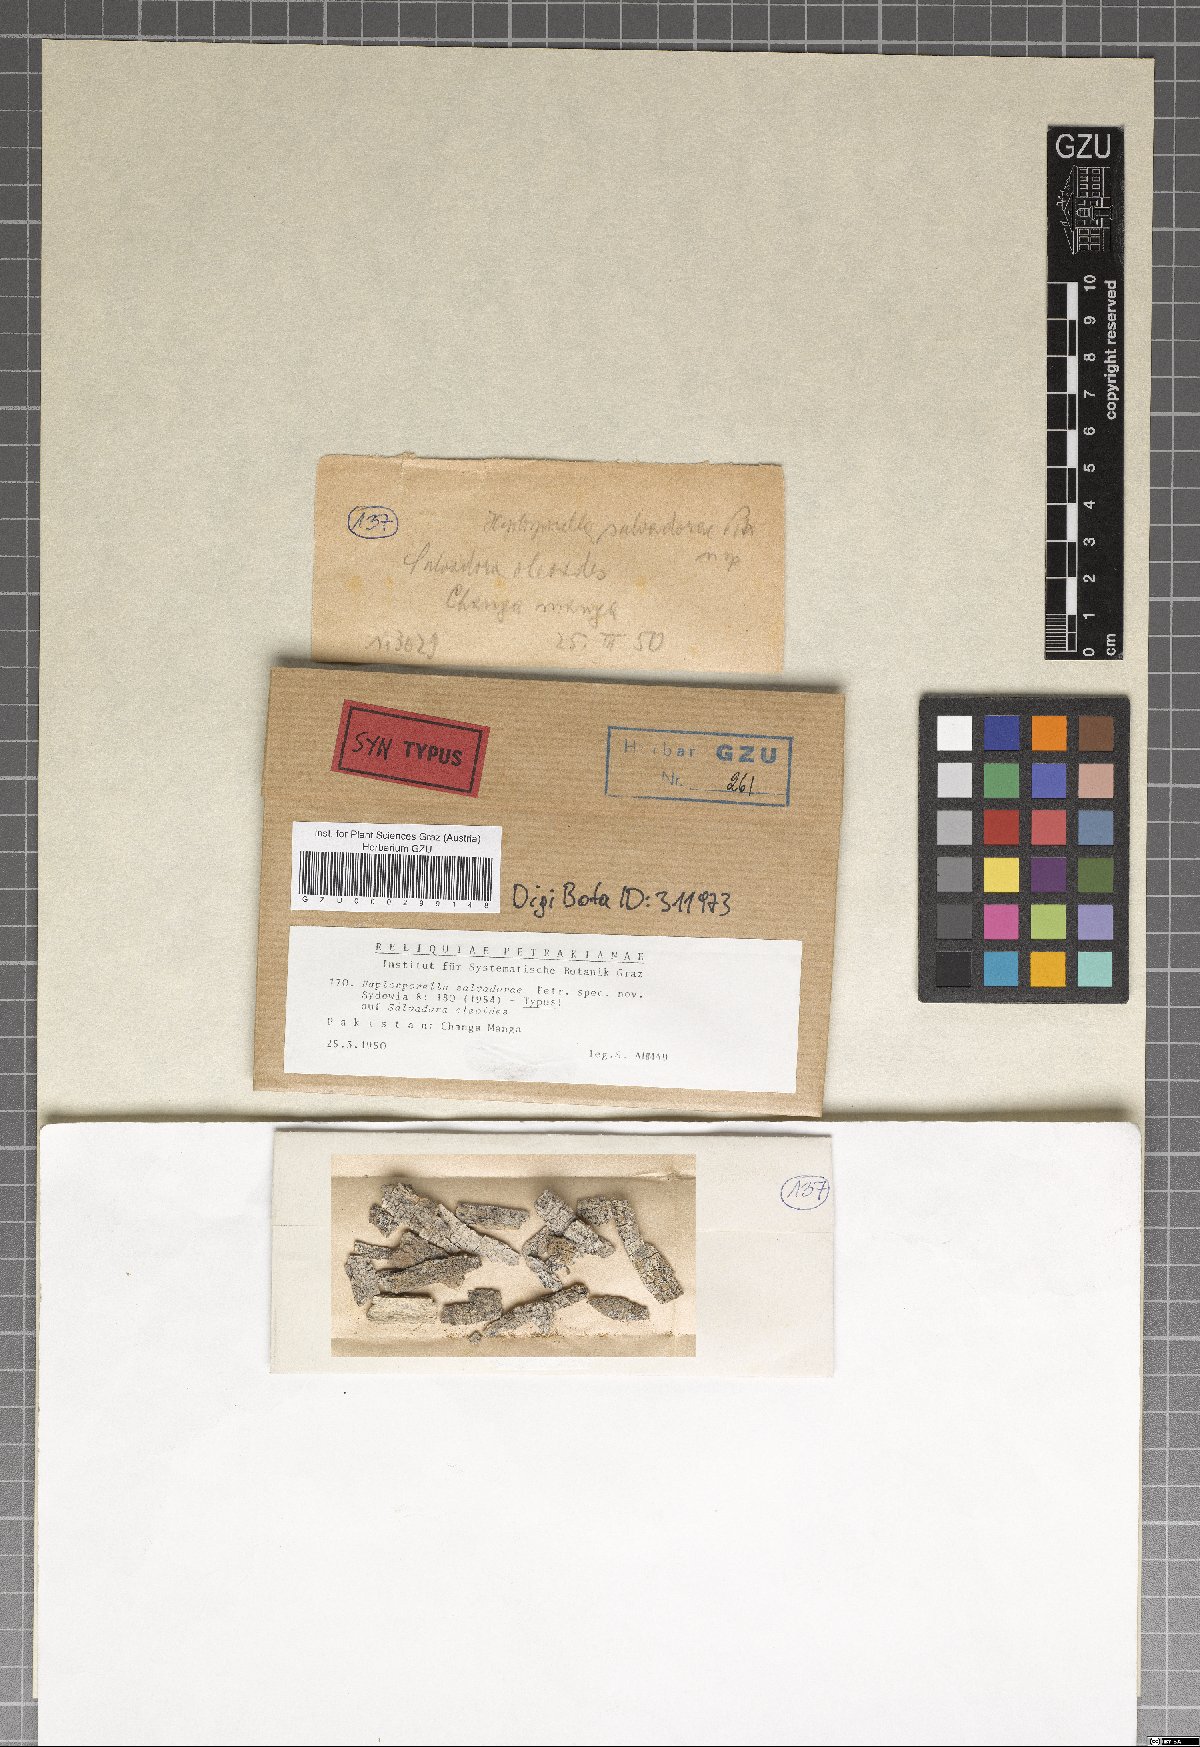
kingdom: Fungi
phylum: Ascomycota
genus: Avettaea
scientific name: Avettaea salvadorae
